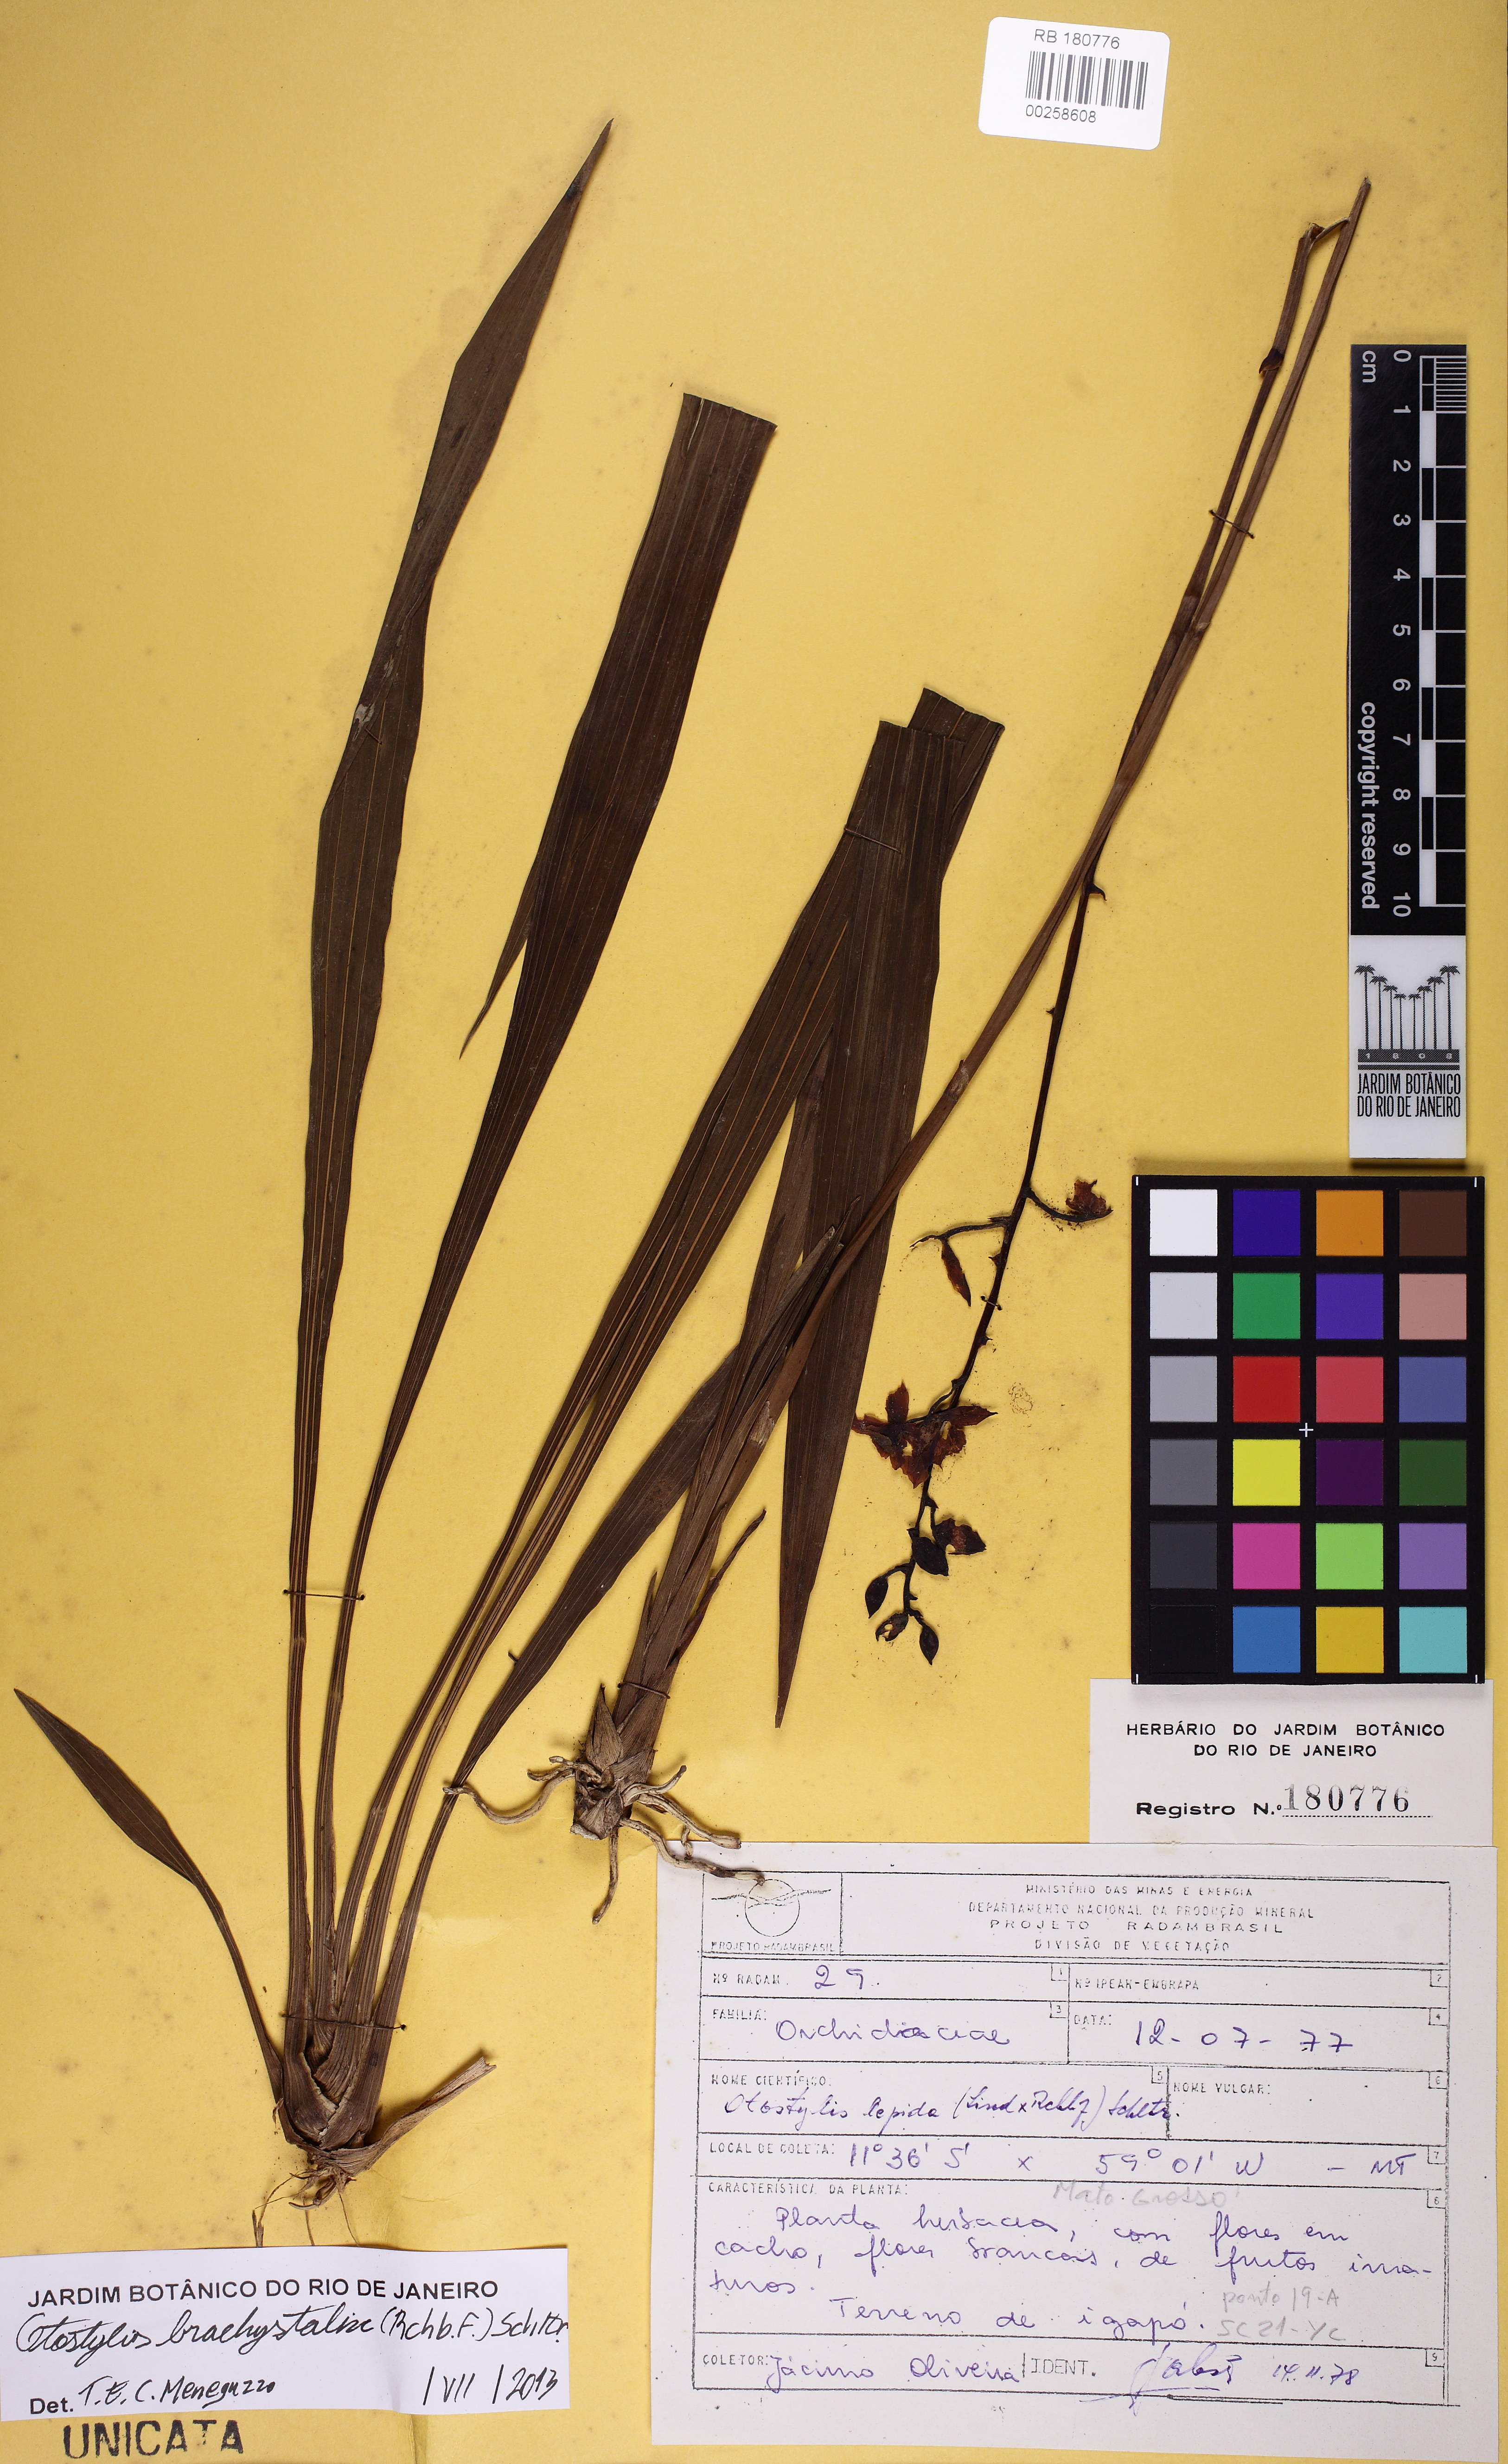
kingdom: Plantae
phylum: Tracheophyta
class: Liliopsida
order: Asparagales
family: Orchidaceae
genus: Otostylis
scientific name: Otostylis brachystalix
